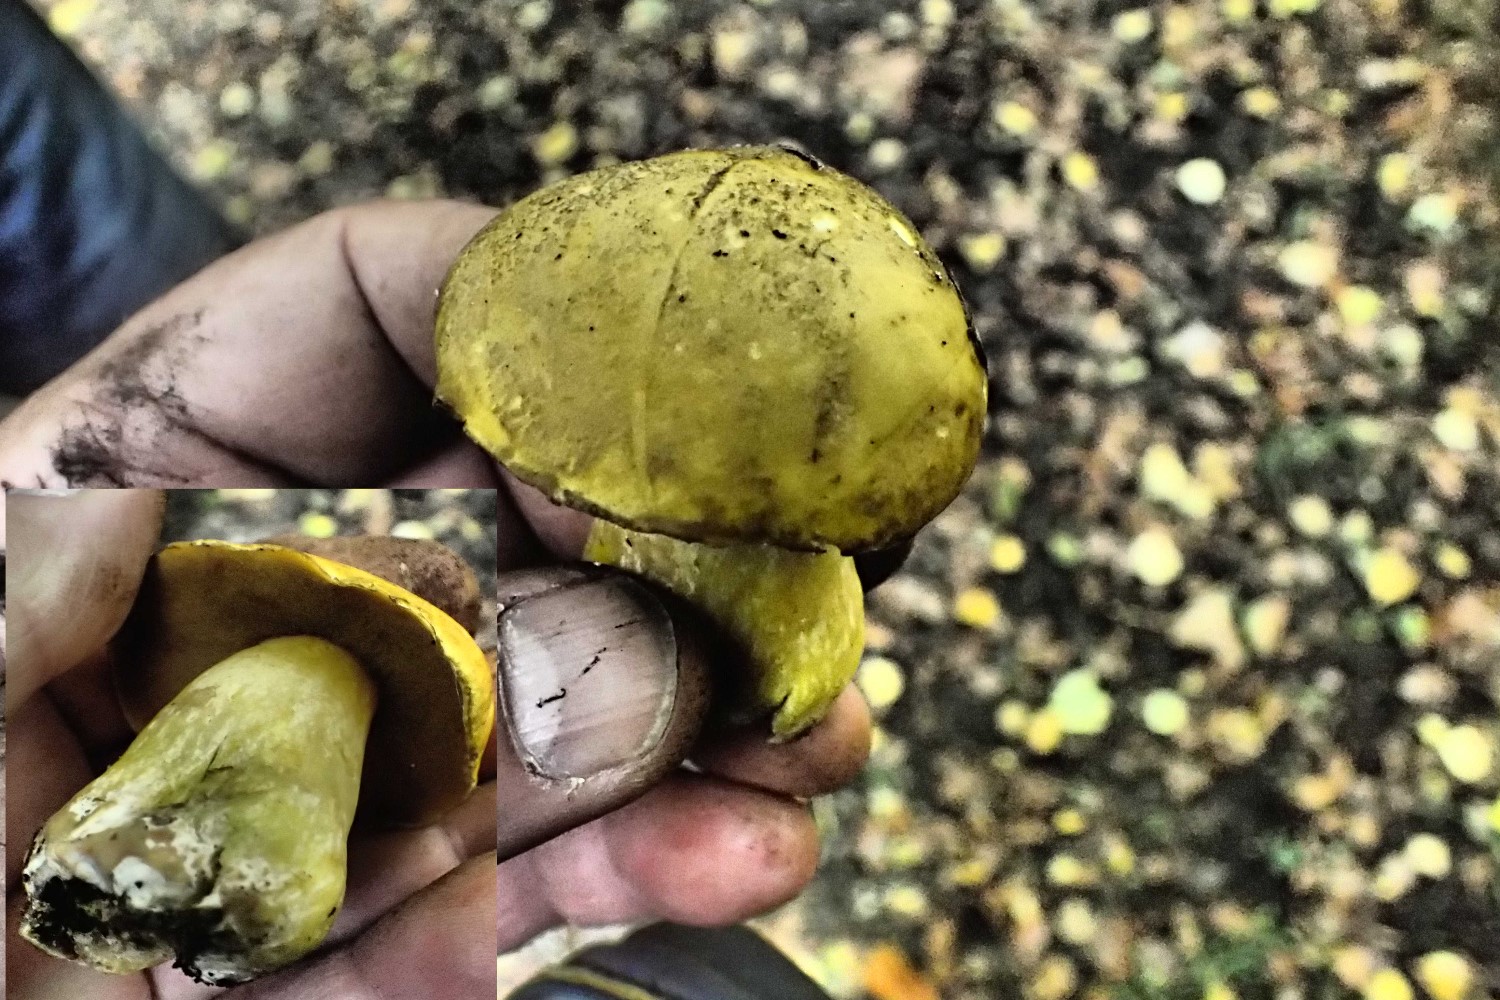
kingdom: Fungi
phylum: Basidiomycota
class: Agaricomycetes
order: Boletales
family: Boletaceae
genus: Neoboletus
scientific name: Neoboletus praestigiator
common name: gul indigorørhat
